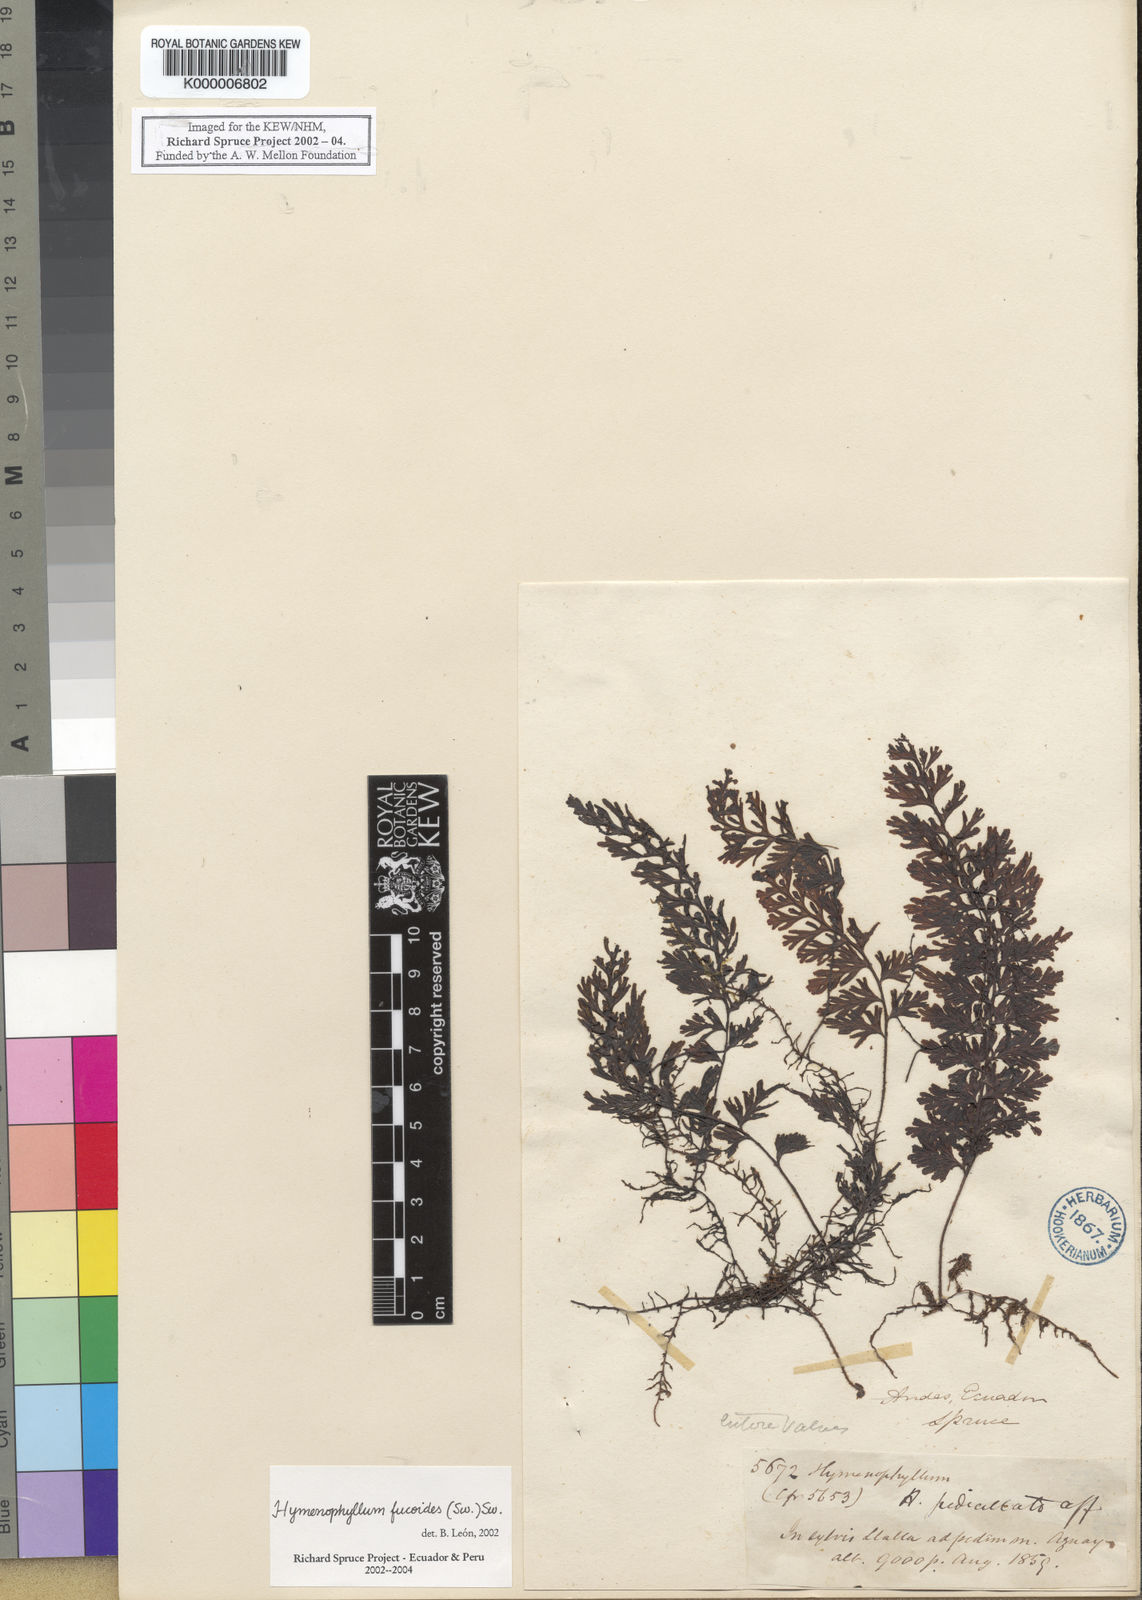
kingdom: Plantae
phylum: Tracheophyta
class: Polypodiopsida
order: Hymenophyllales
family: Hymenophyllaceae
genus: Hymenophyllum
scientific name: Hymenophyllum fucoides
